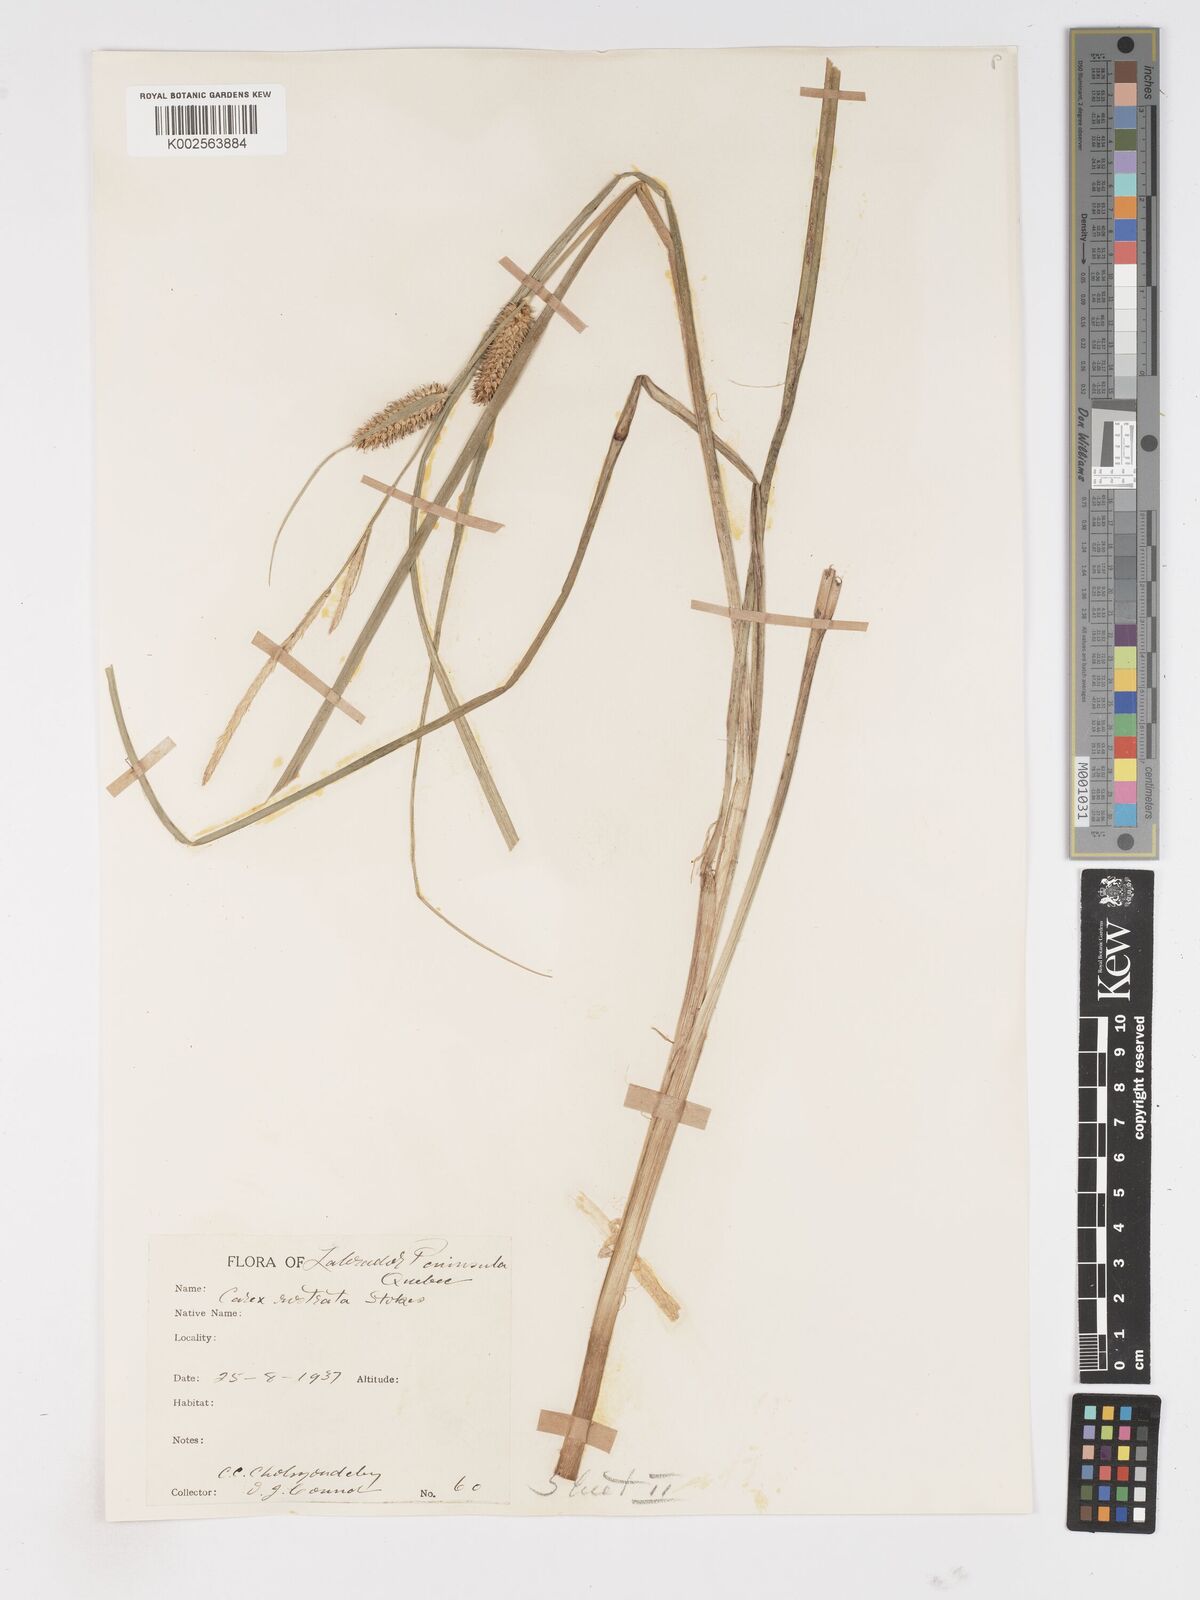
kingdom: Plantae
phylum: Tracheophyta
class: Liliopsida
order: Poales
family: Cyperaceae
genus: Carex
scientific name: Carex rostrata
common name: Bottle sedge
